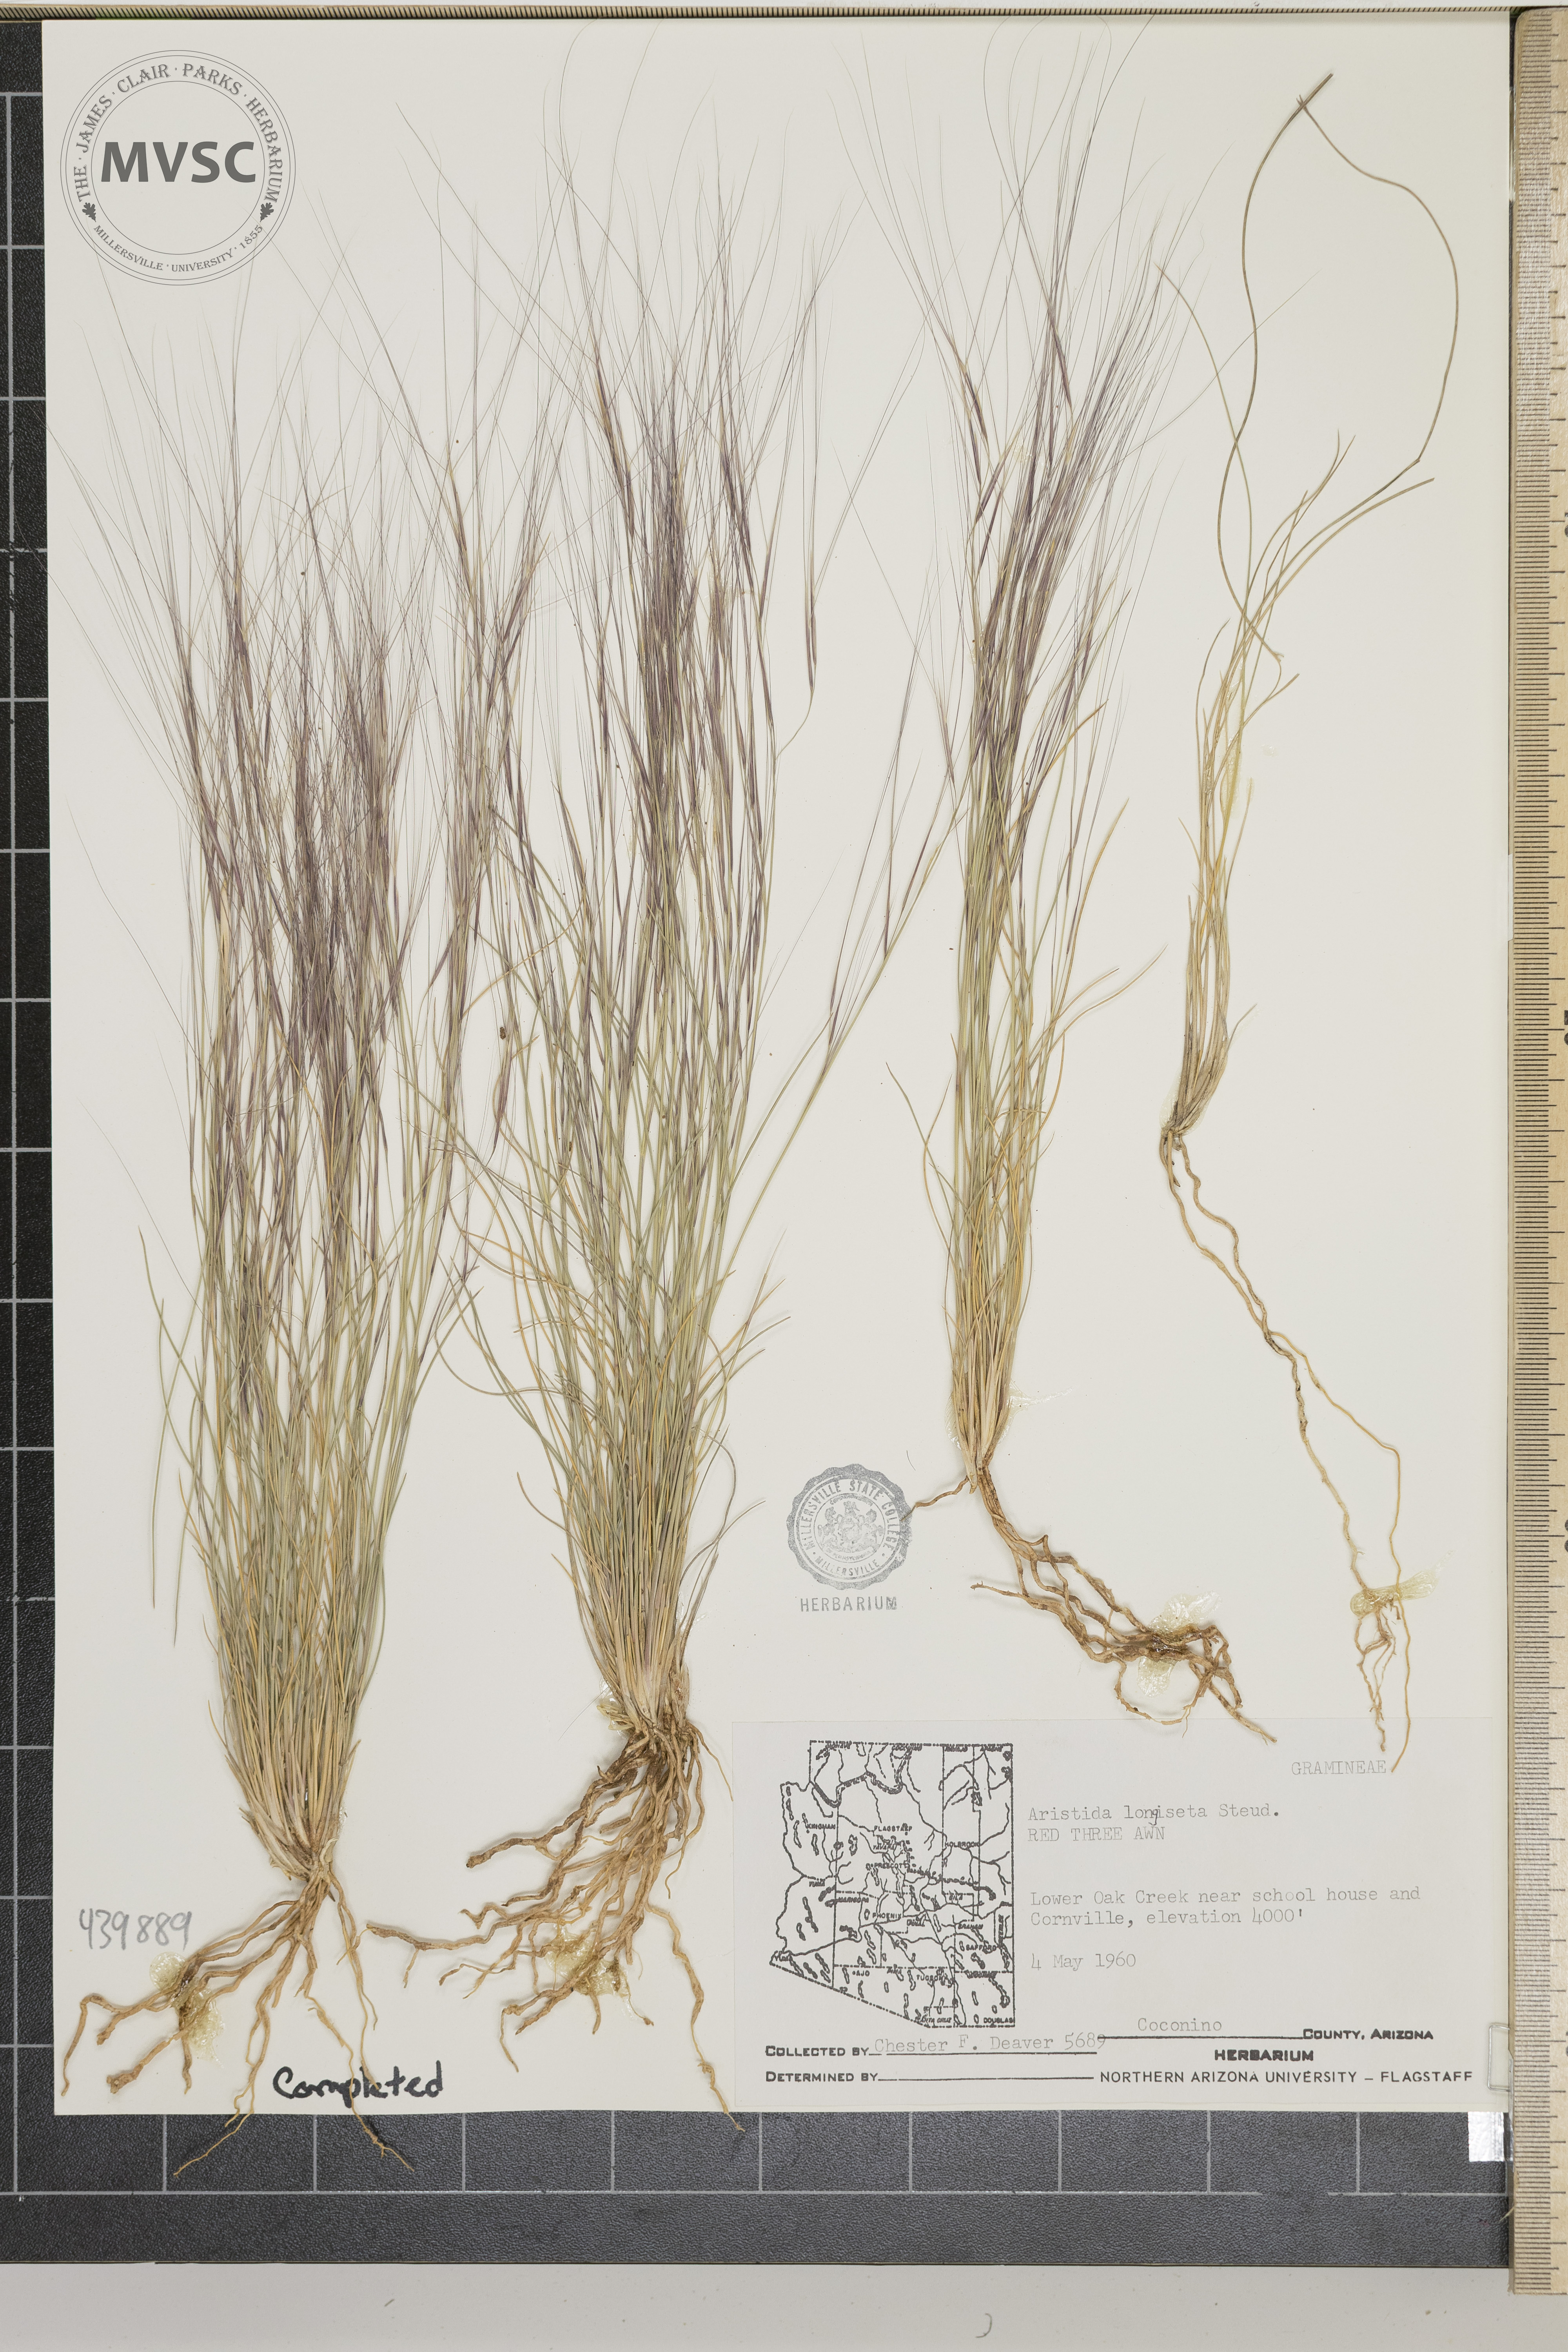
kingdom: Plantae
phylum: Tracheophyta
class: Liliopsida
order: Poales
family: Poaceae
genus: Aristida
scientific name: Aristida longiseta
